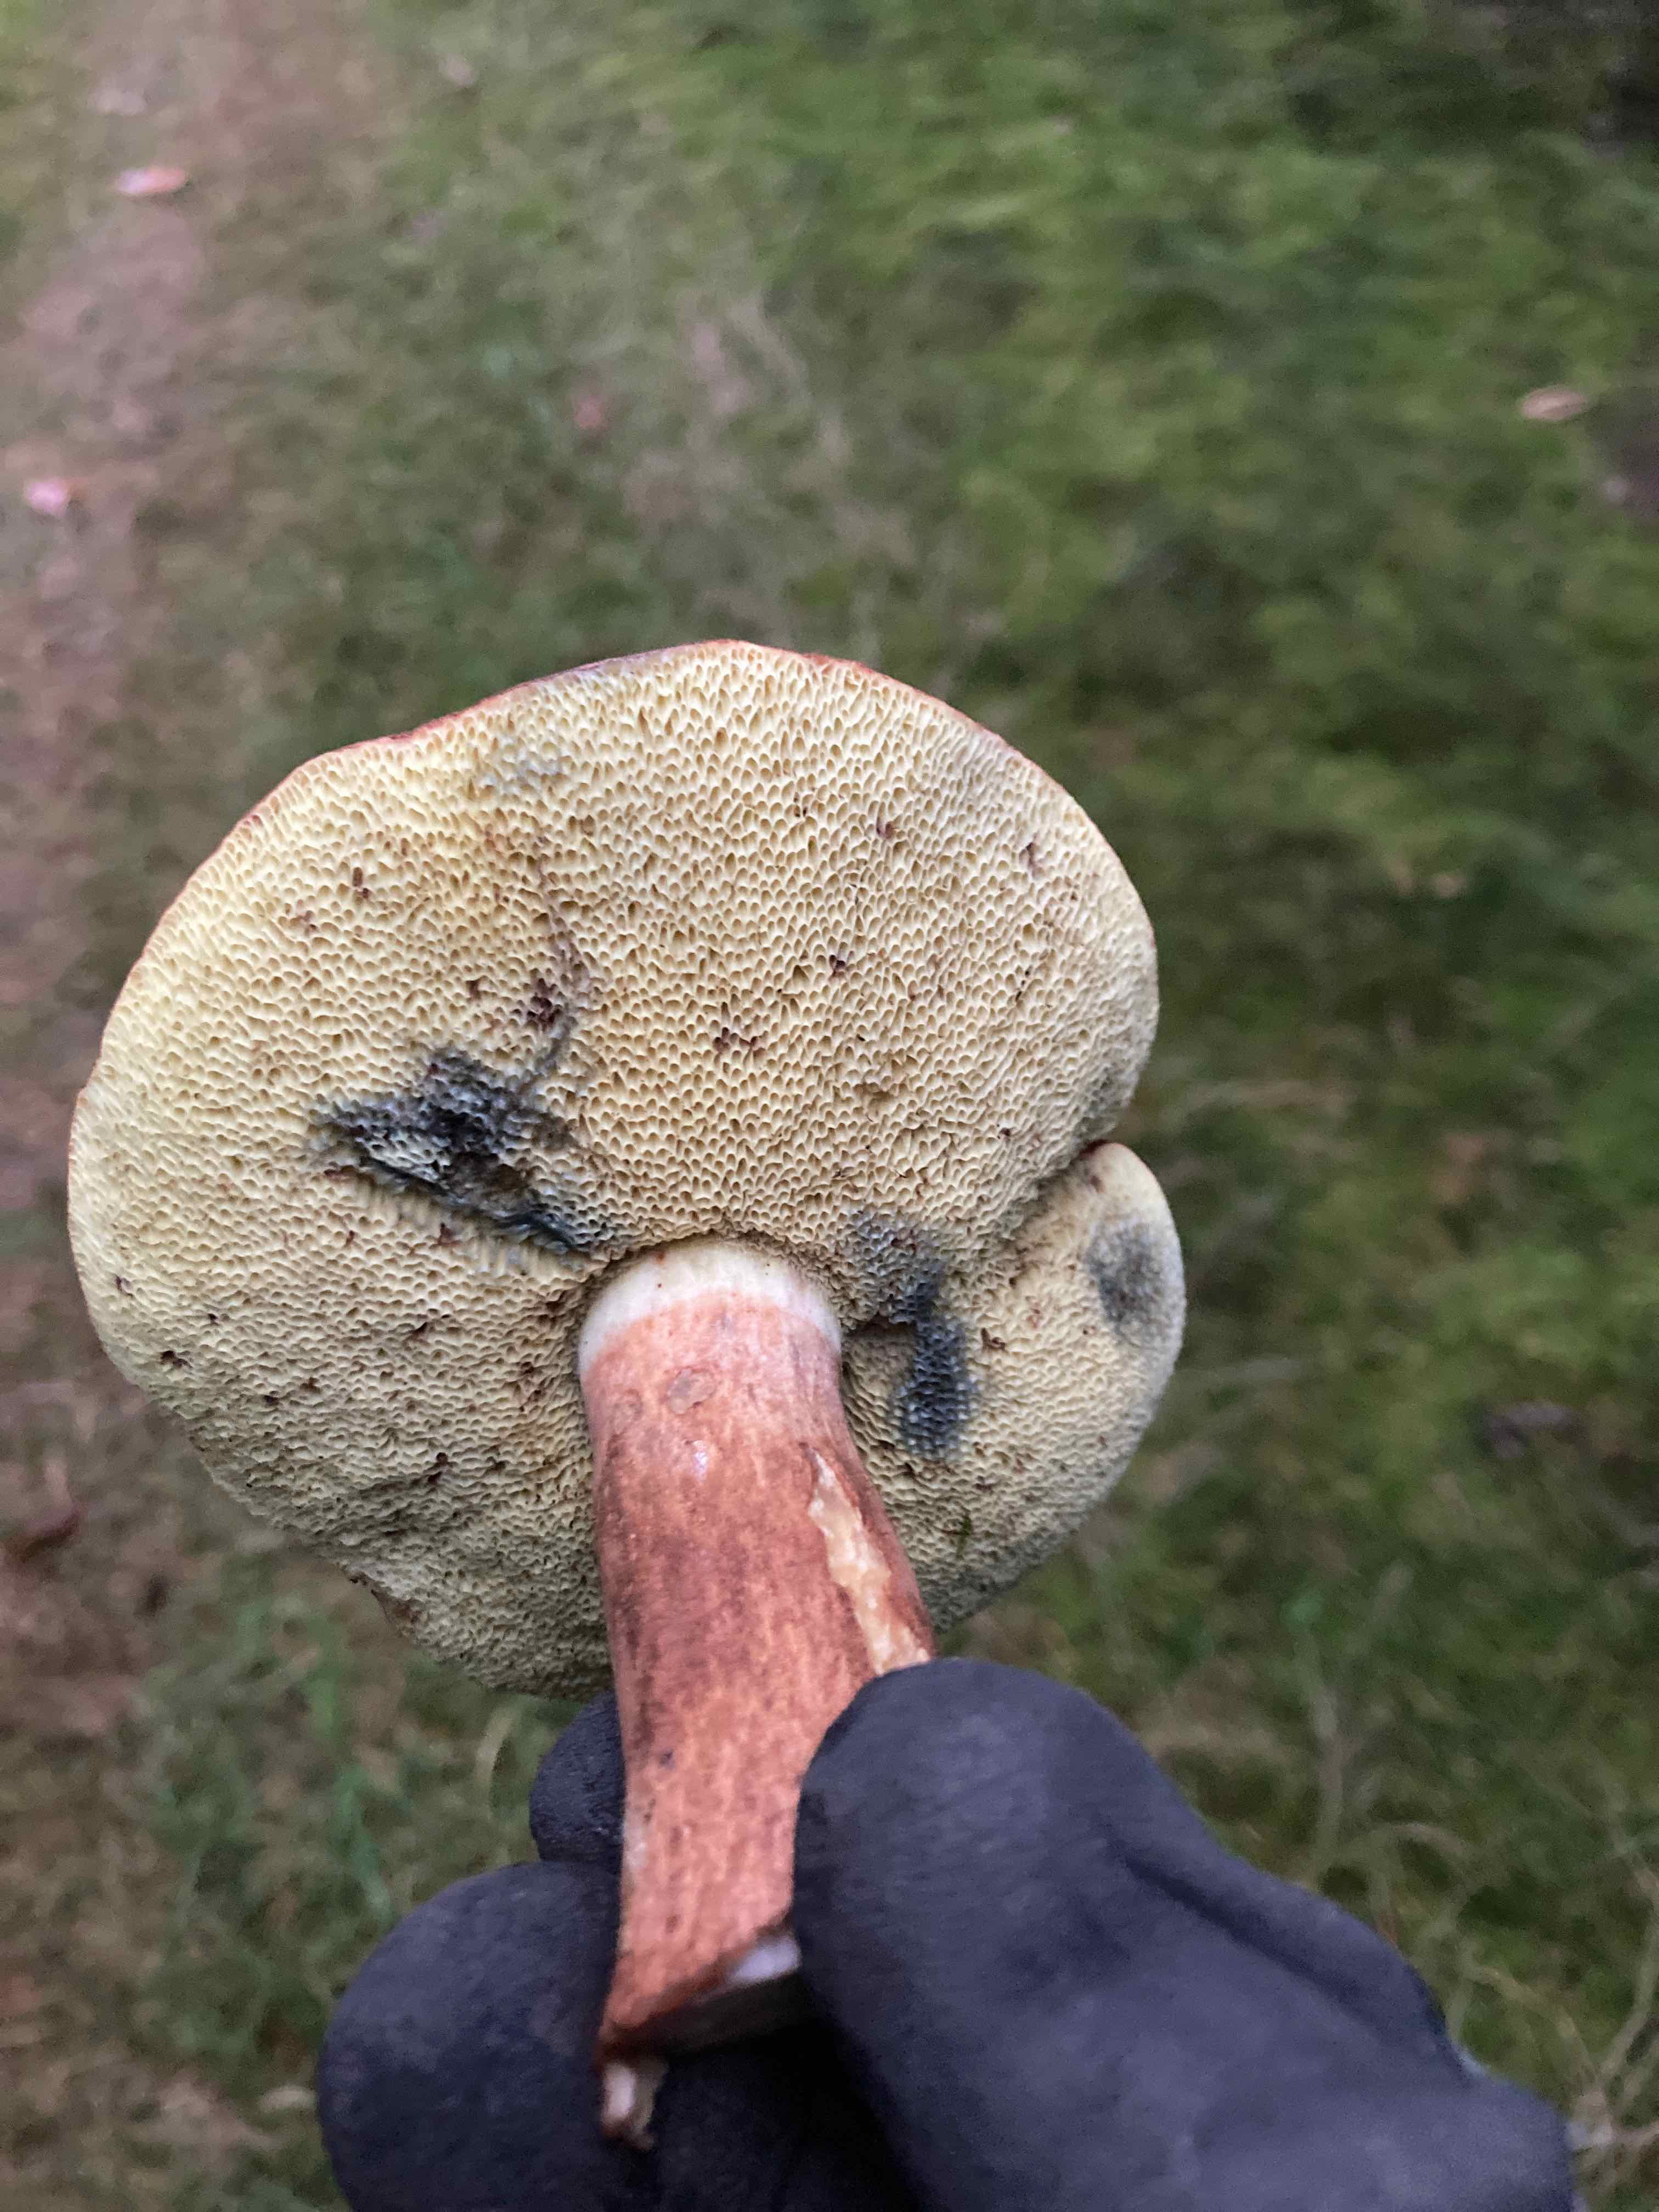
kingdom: Fungi
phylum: Basidiomycota
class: Agaricomycetes
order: Boletales
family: Boletaceae
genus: Imleria
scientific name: Imleria badia
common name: brunstokket rørhat
